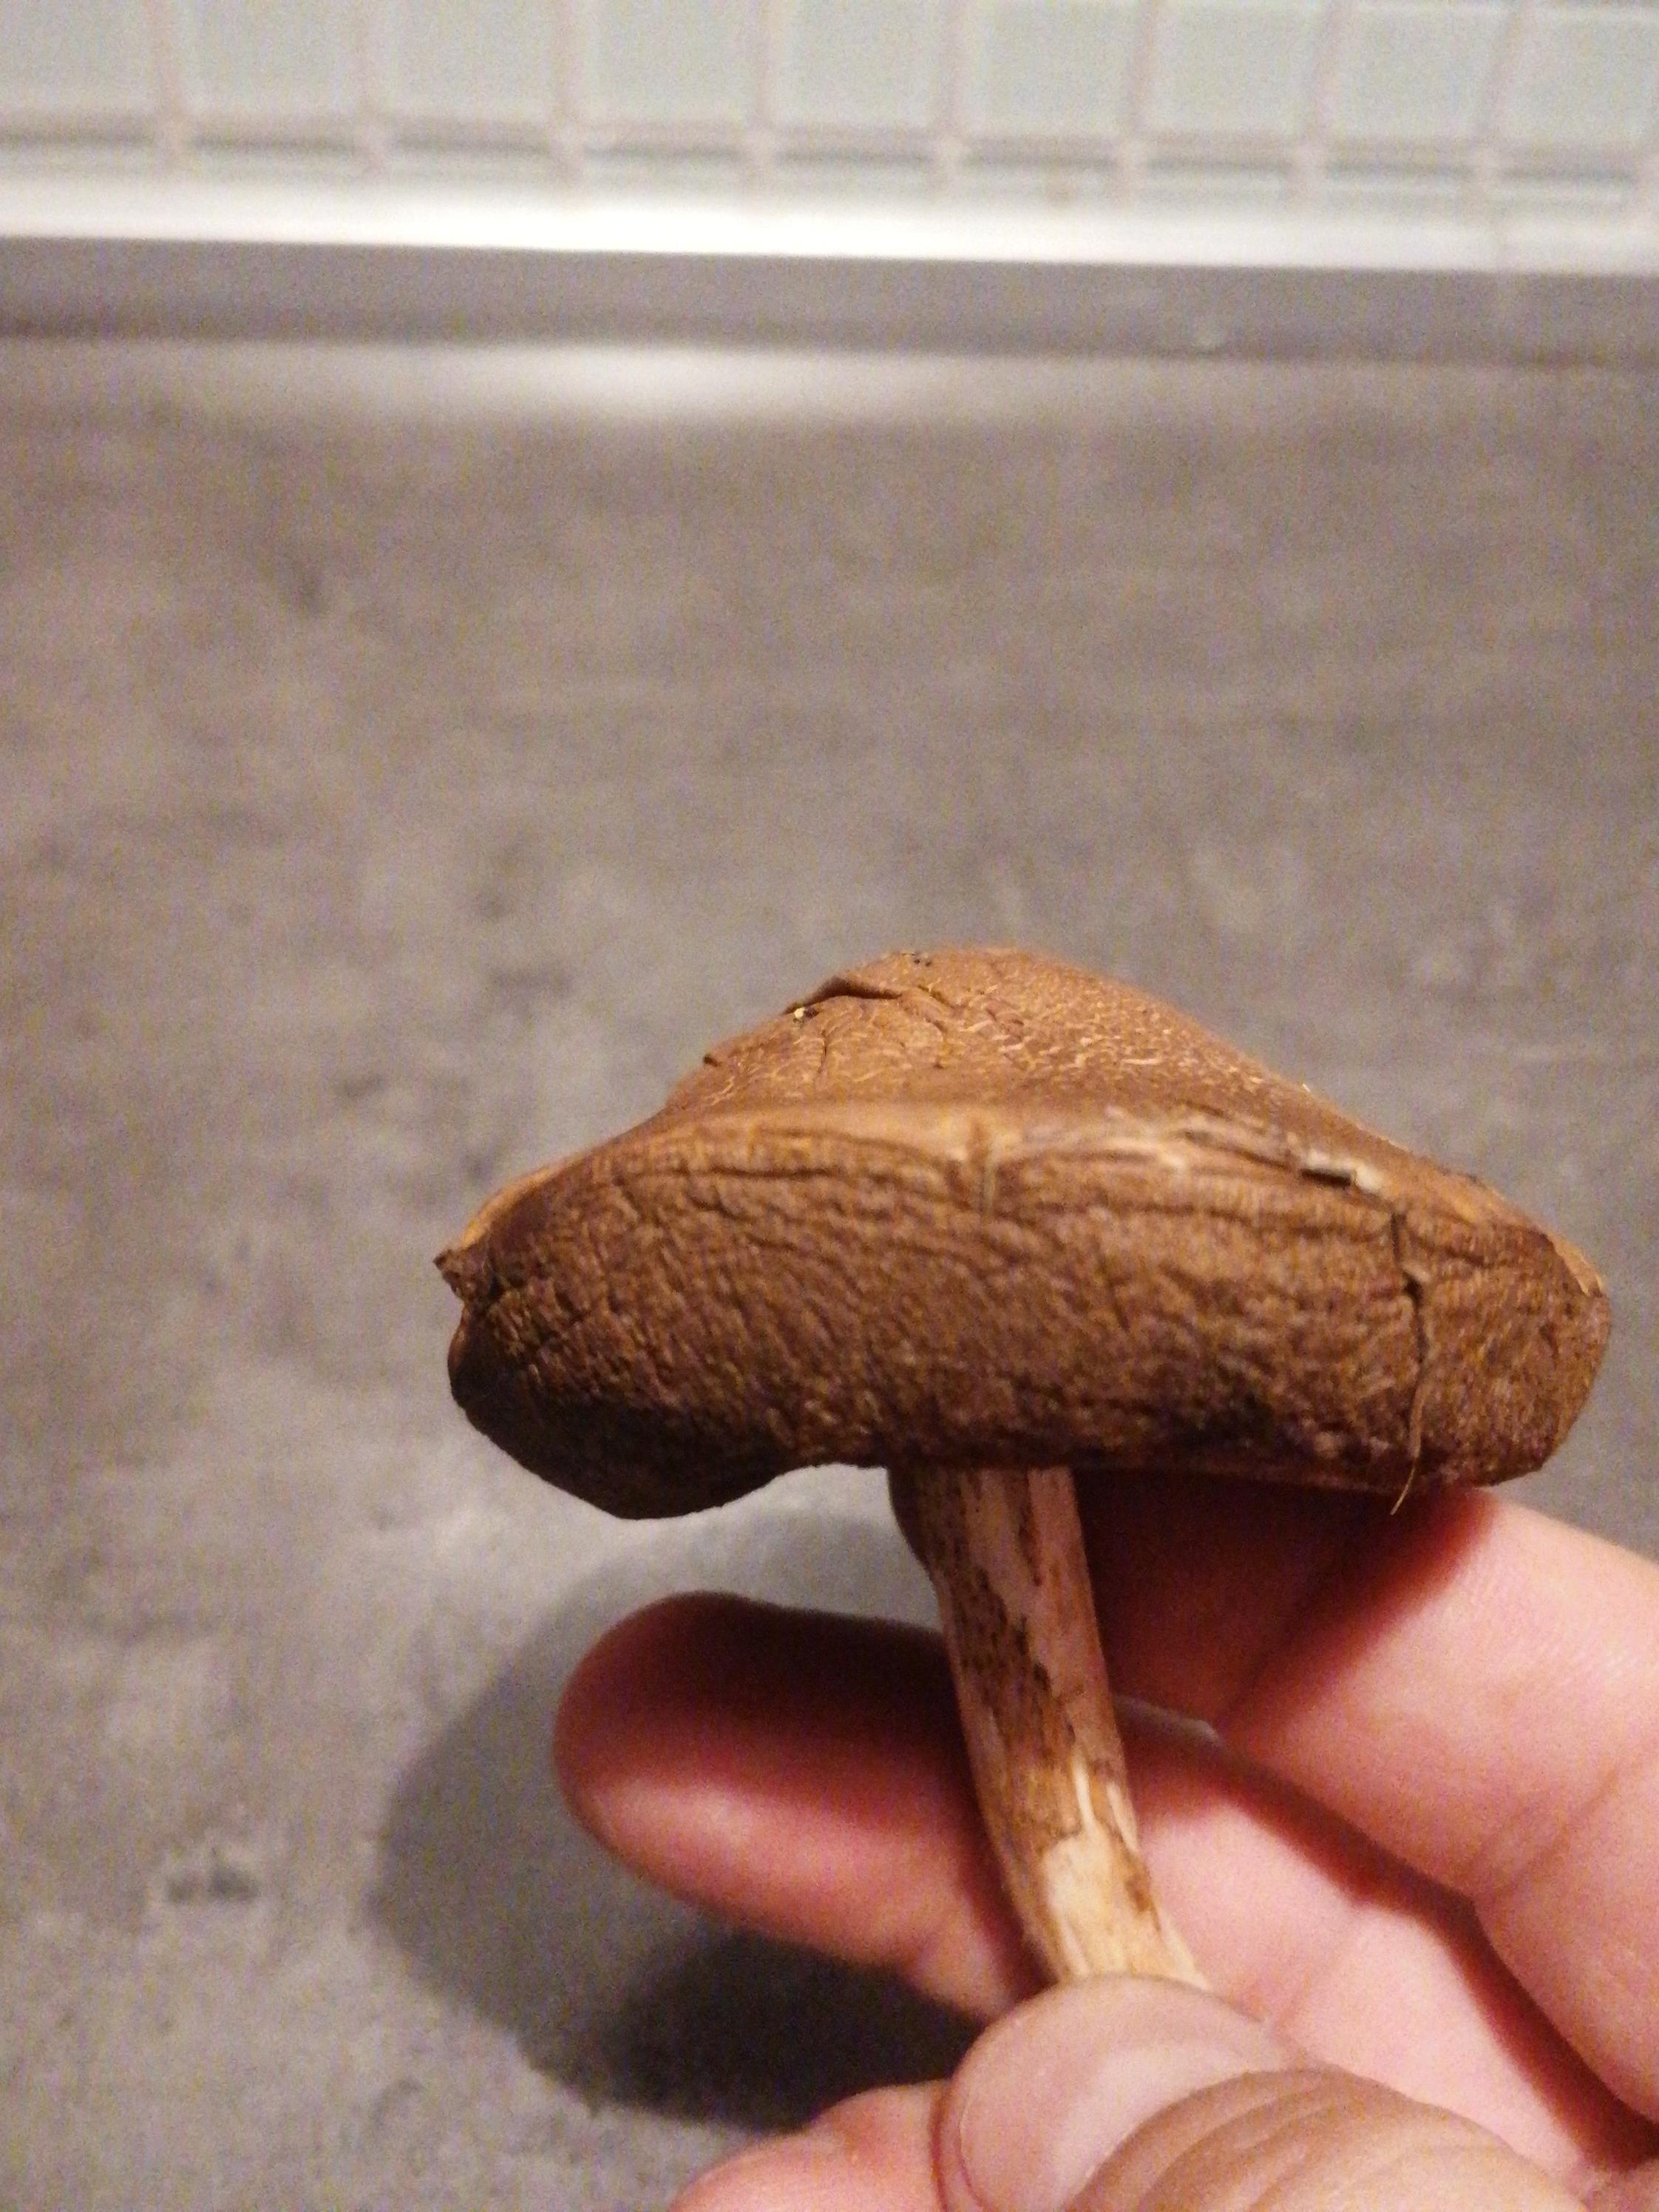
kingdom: Fungi
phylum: Basidiomycota
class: Agaricomycetes
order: Boletales
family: Boletaceae
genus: Leccinum
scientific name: Leccinum
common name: skælrørhat
